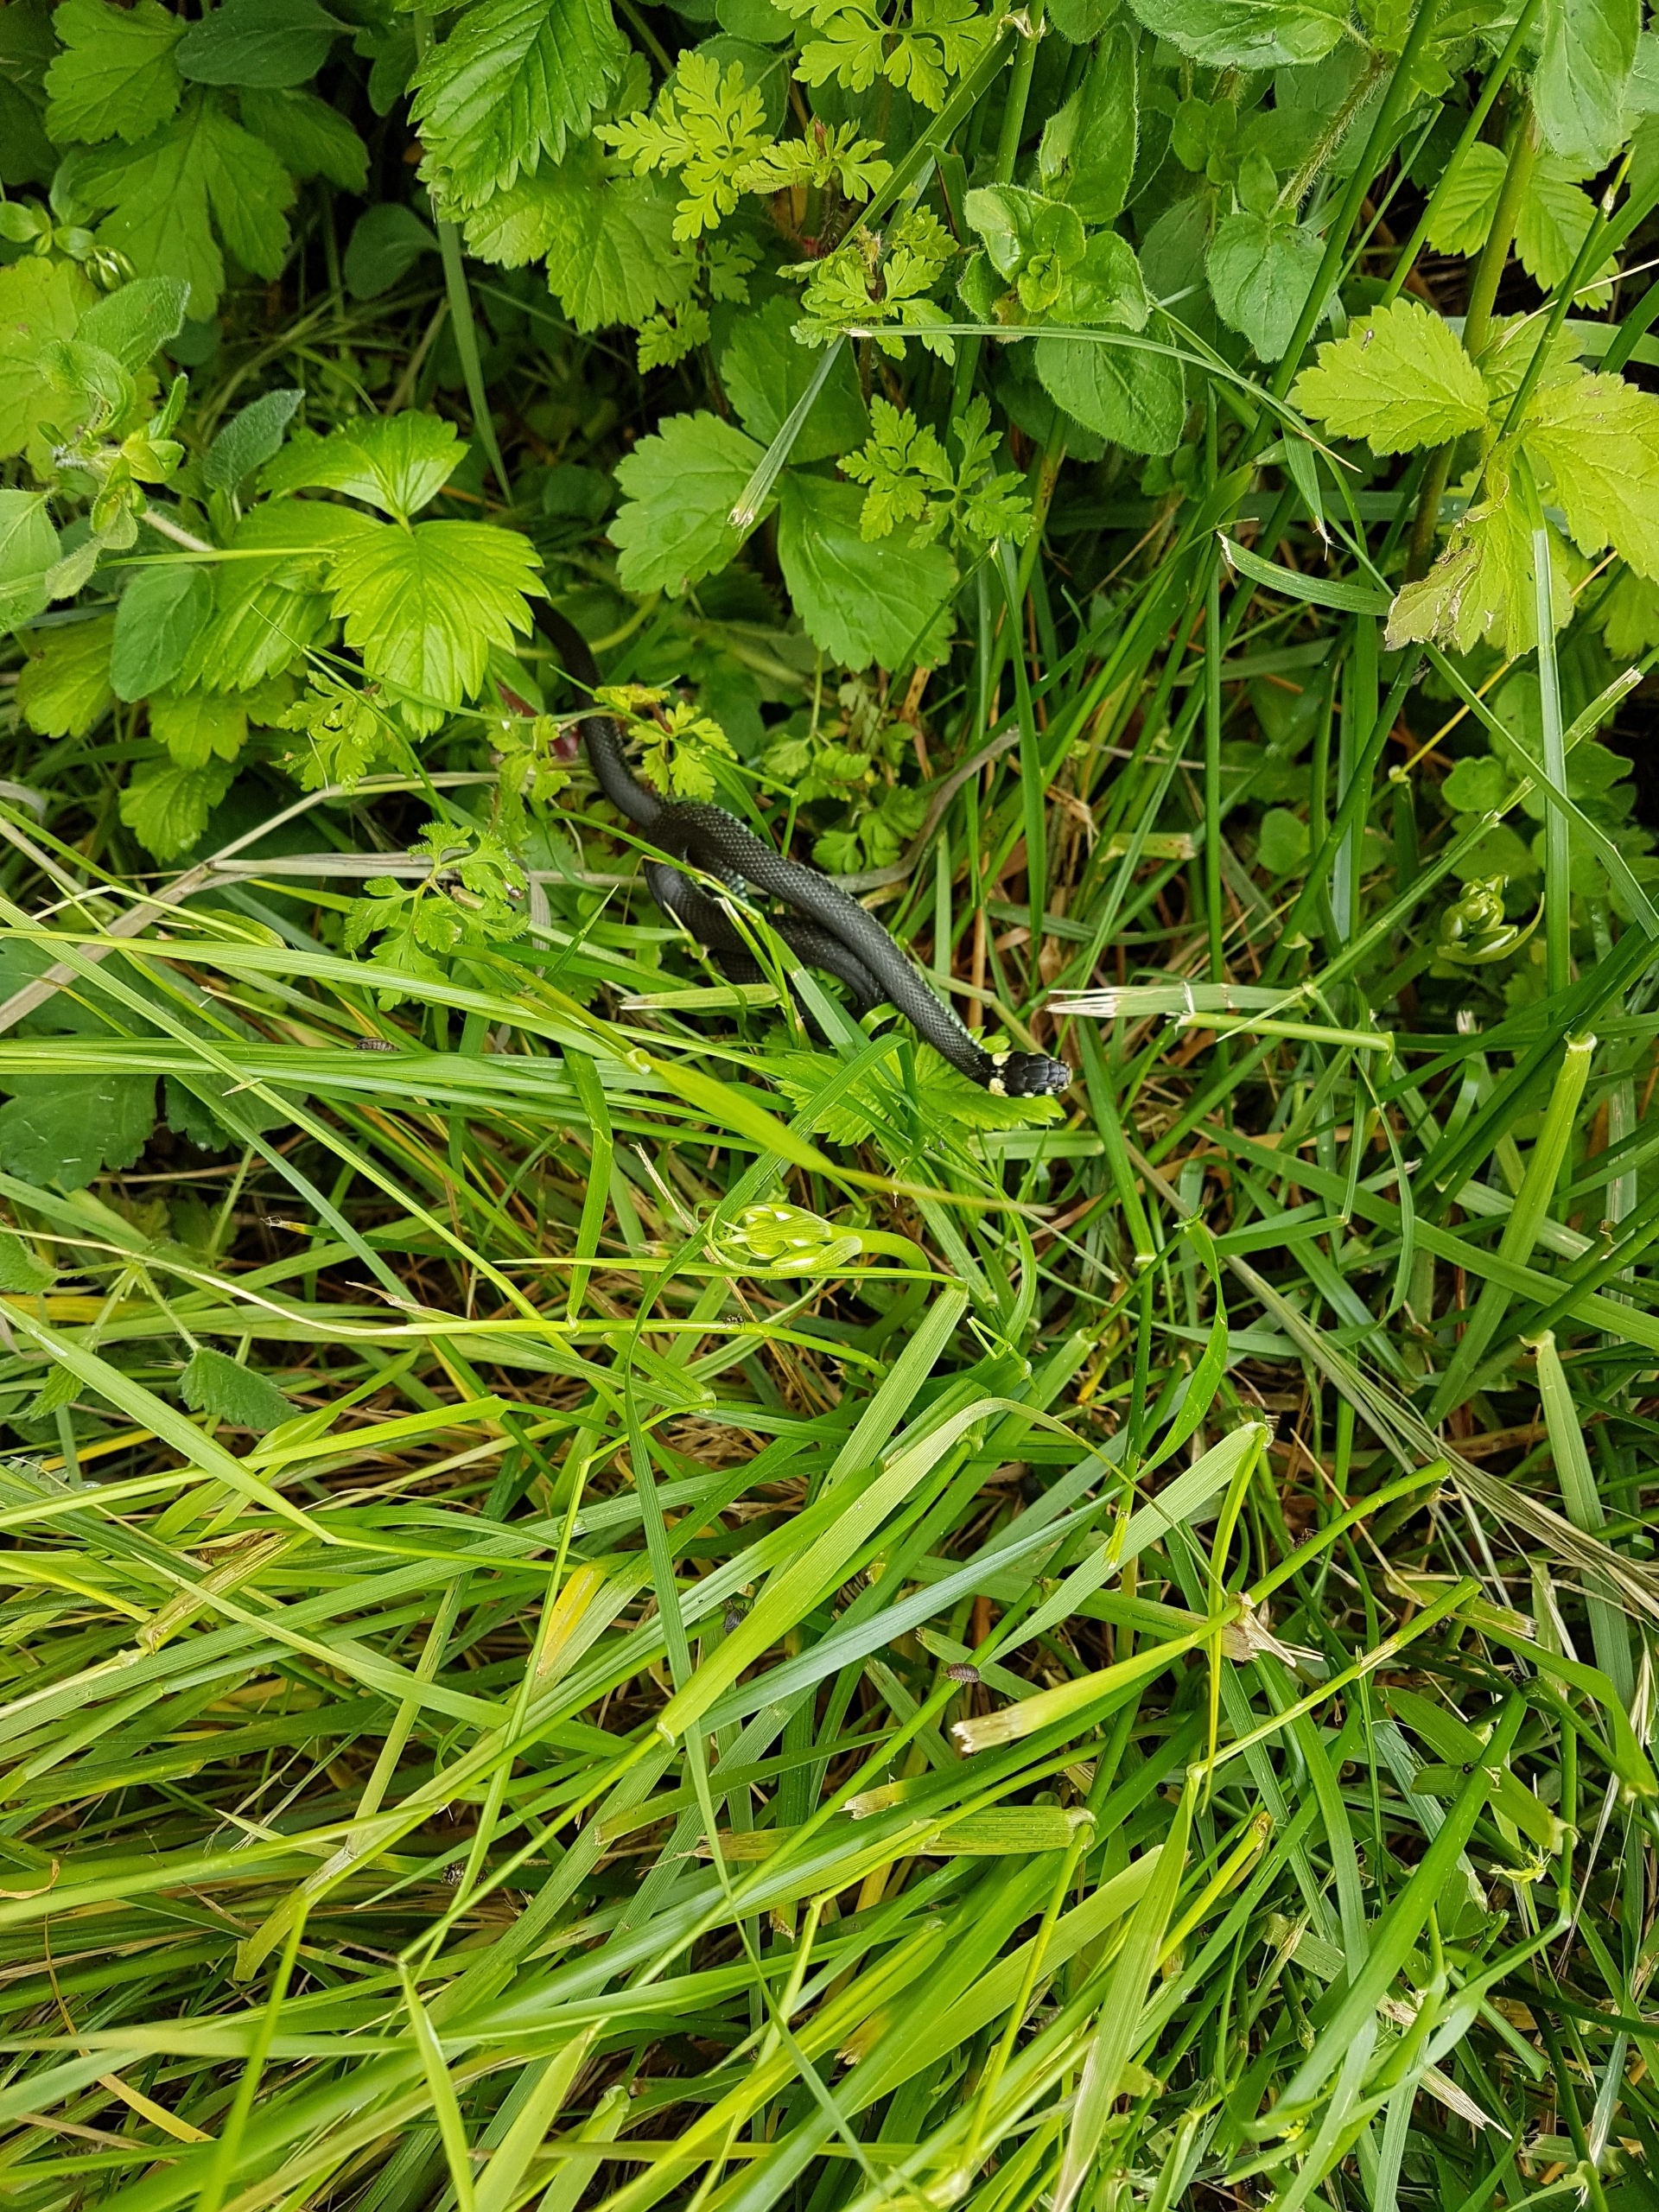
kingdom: Animalia
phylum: Chordata
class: Squamata
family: Colubridae
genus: Natrix
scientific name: Natrix natrix
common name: Snog
